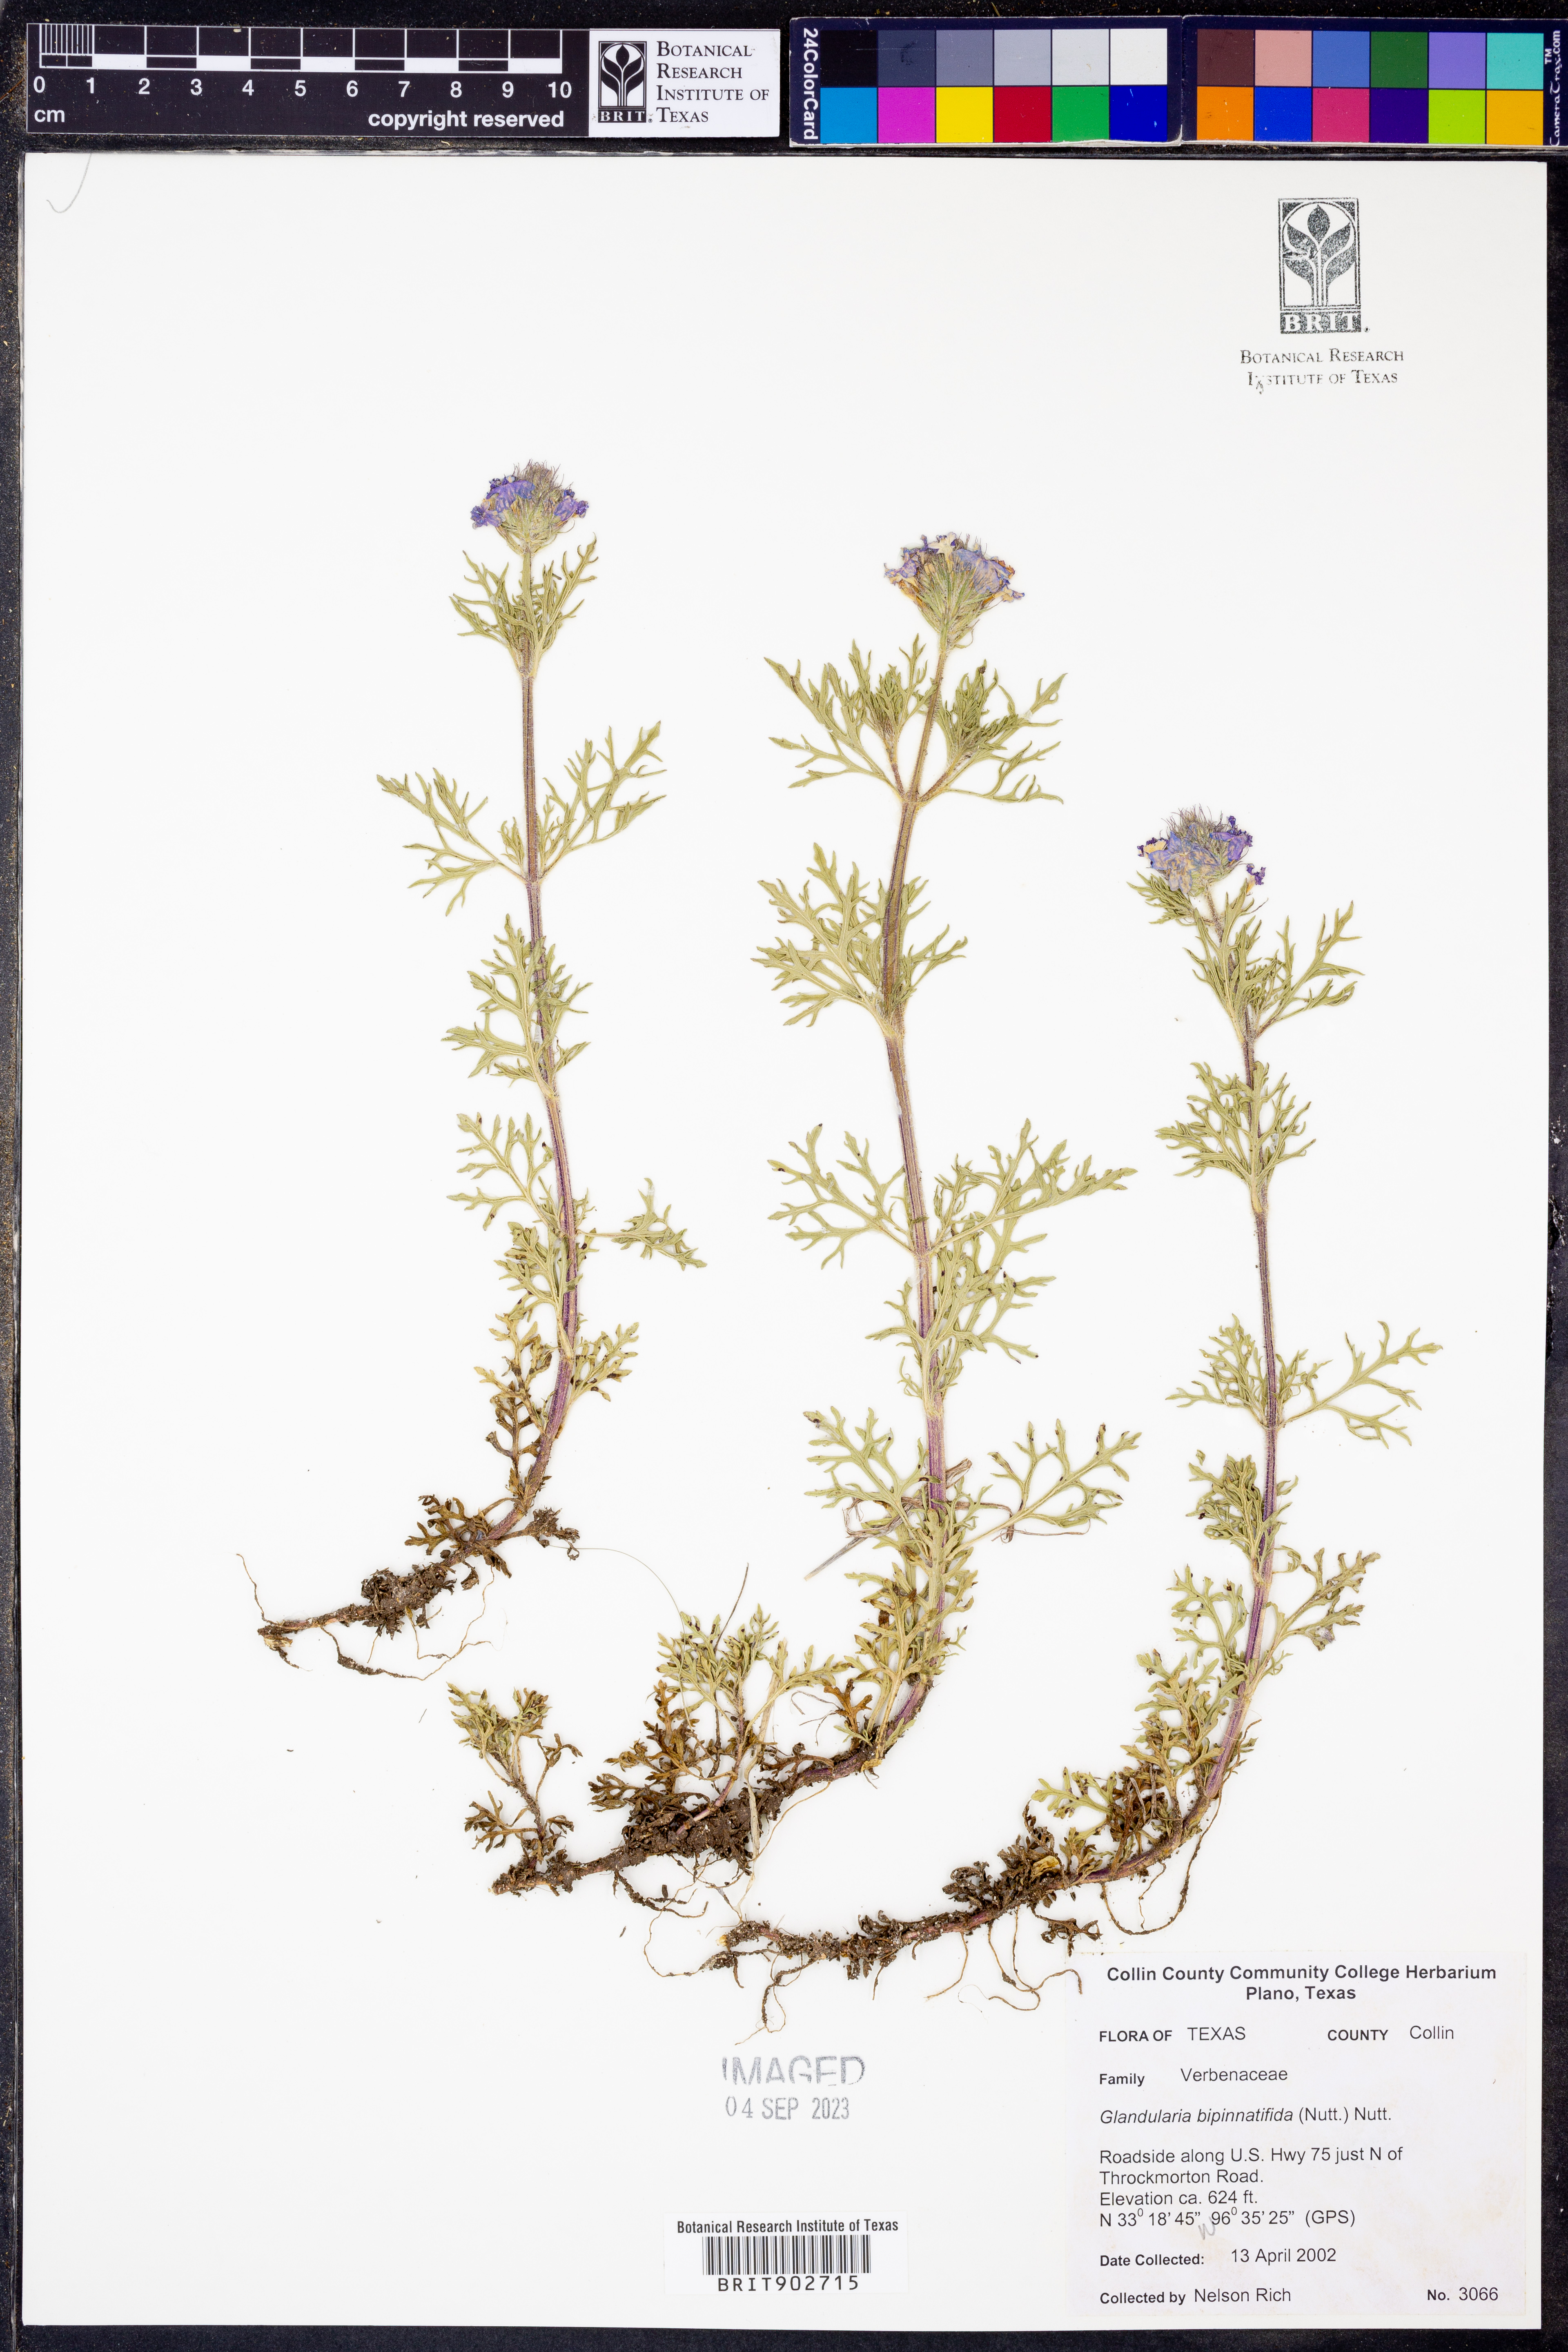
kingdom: Plantae
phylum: Tracheophyta
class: Magnoliopsida
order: Lamiales
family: Verbenaceae
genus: Verbena
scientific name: Verbena bipinnatifida
